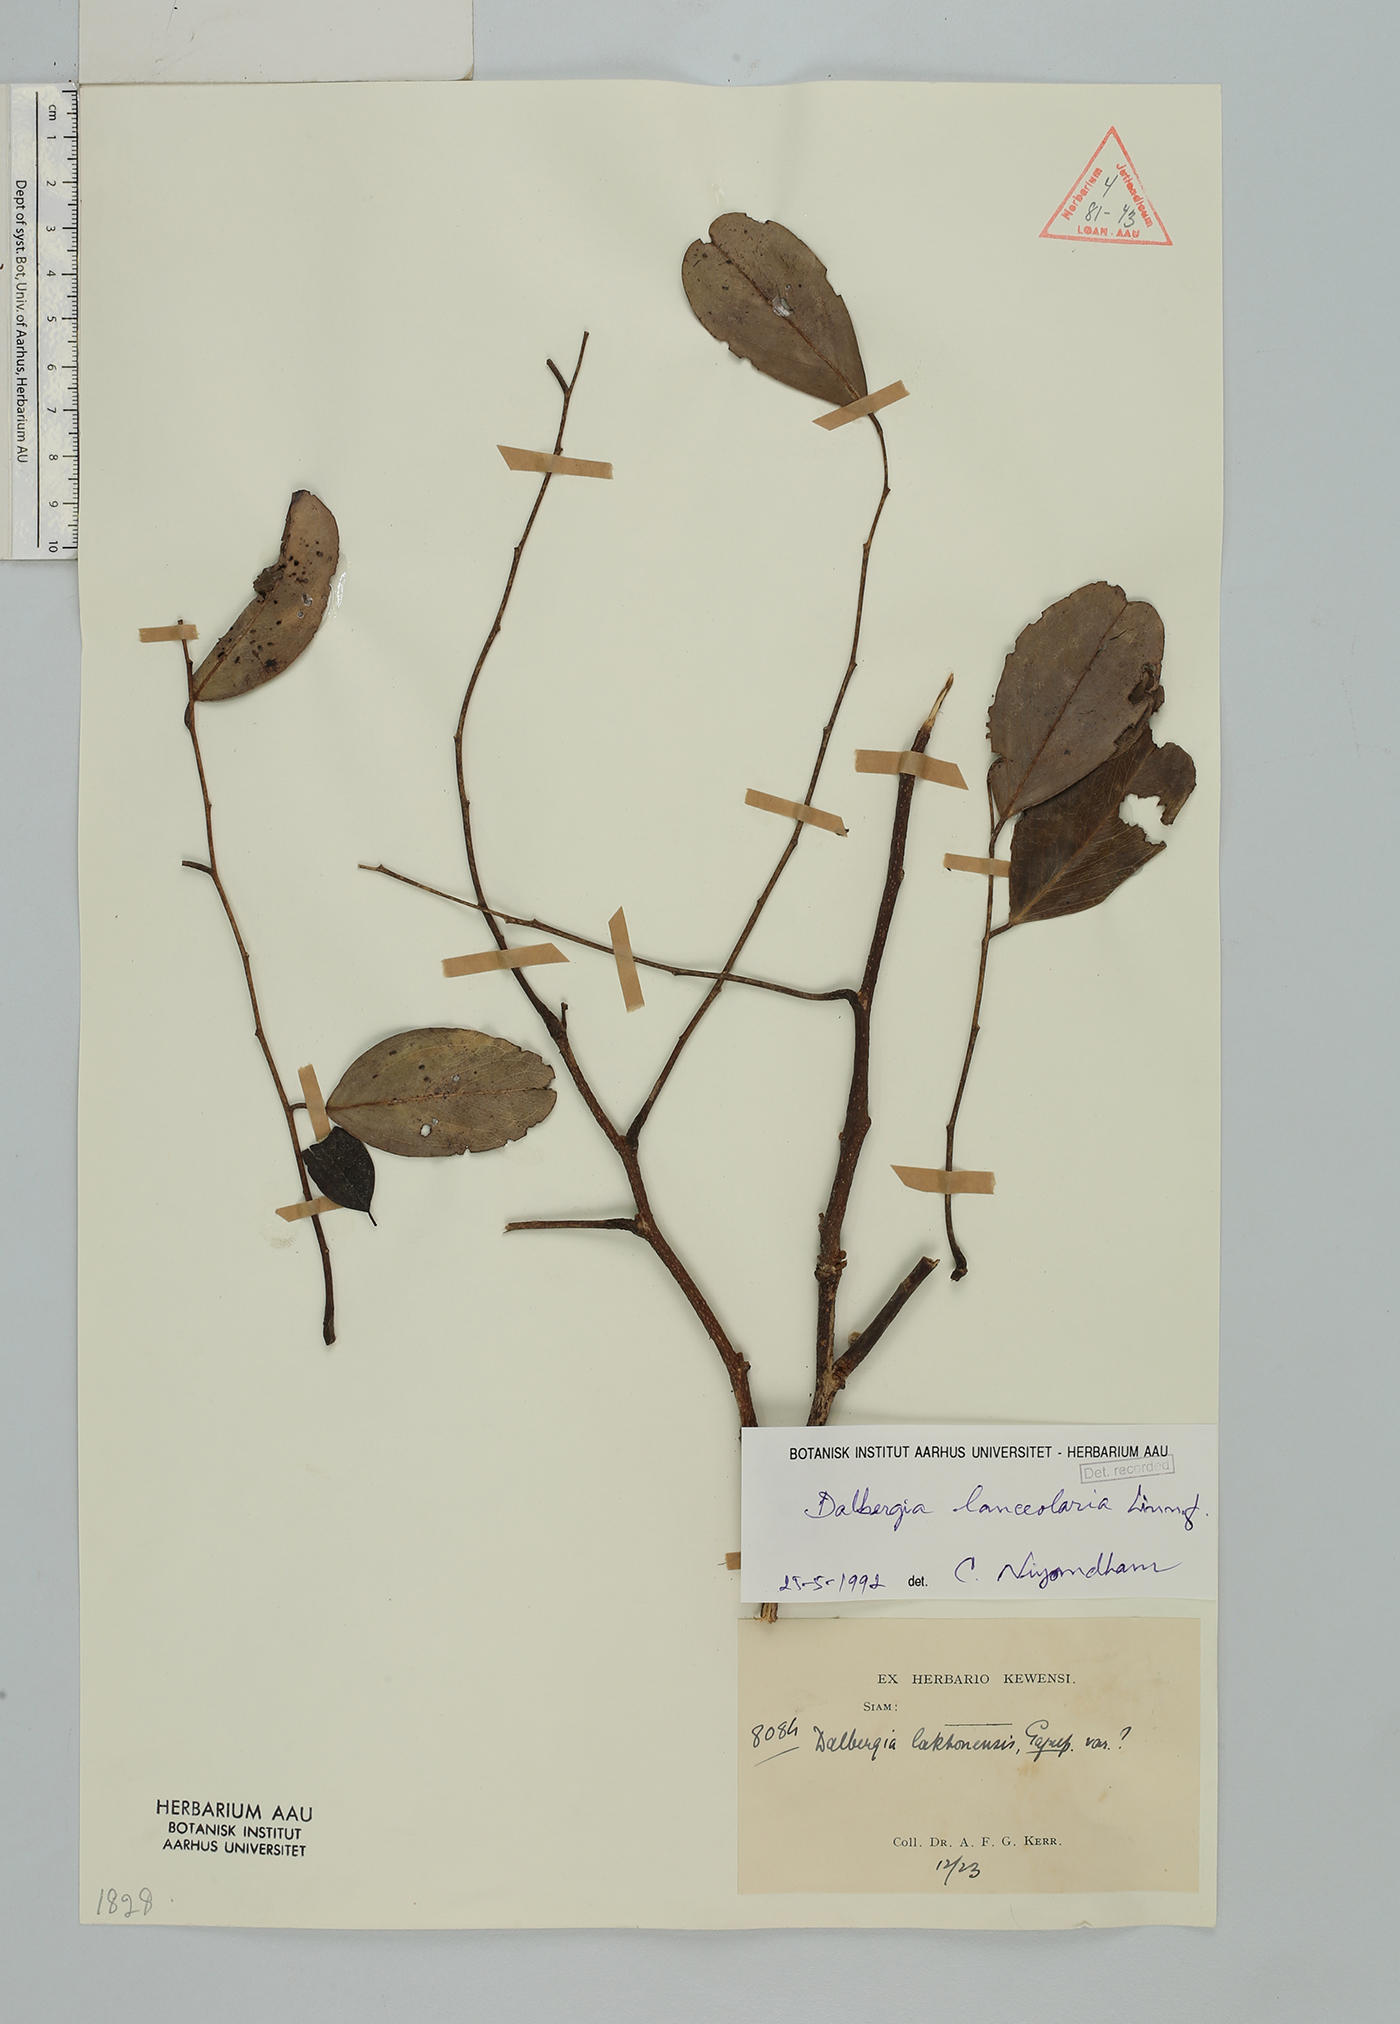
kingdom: Plantae
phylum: Tracheophyta
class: Magnoliopsida
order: Fabales
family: Fabaceae
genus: Dalbergia
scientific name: Dalbergia lanceolaria
